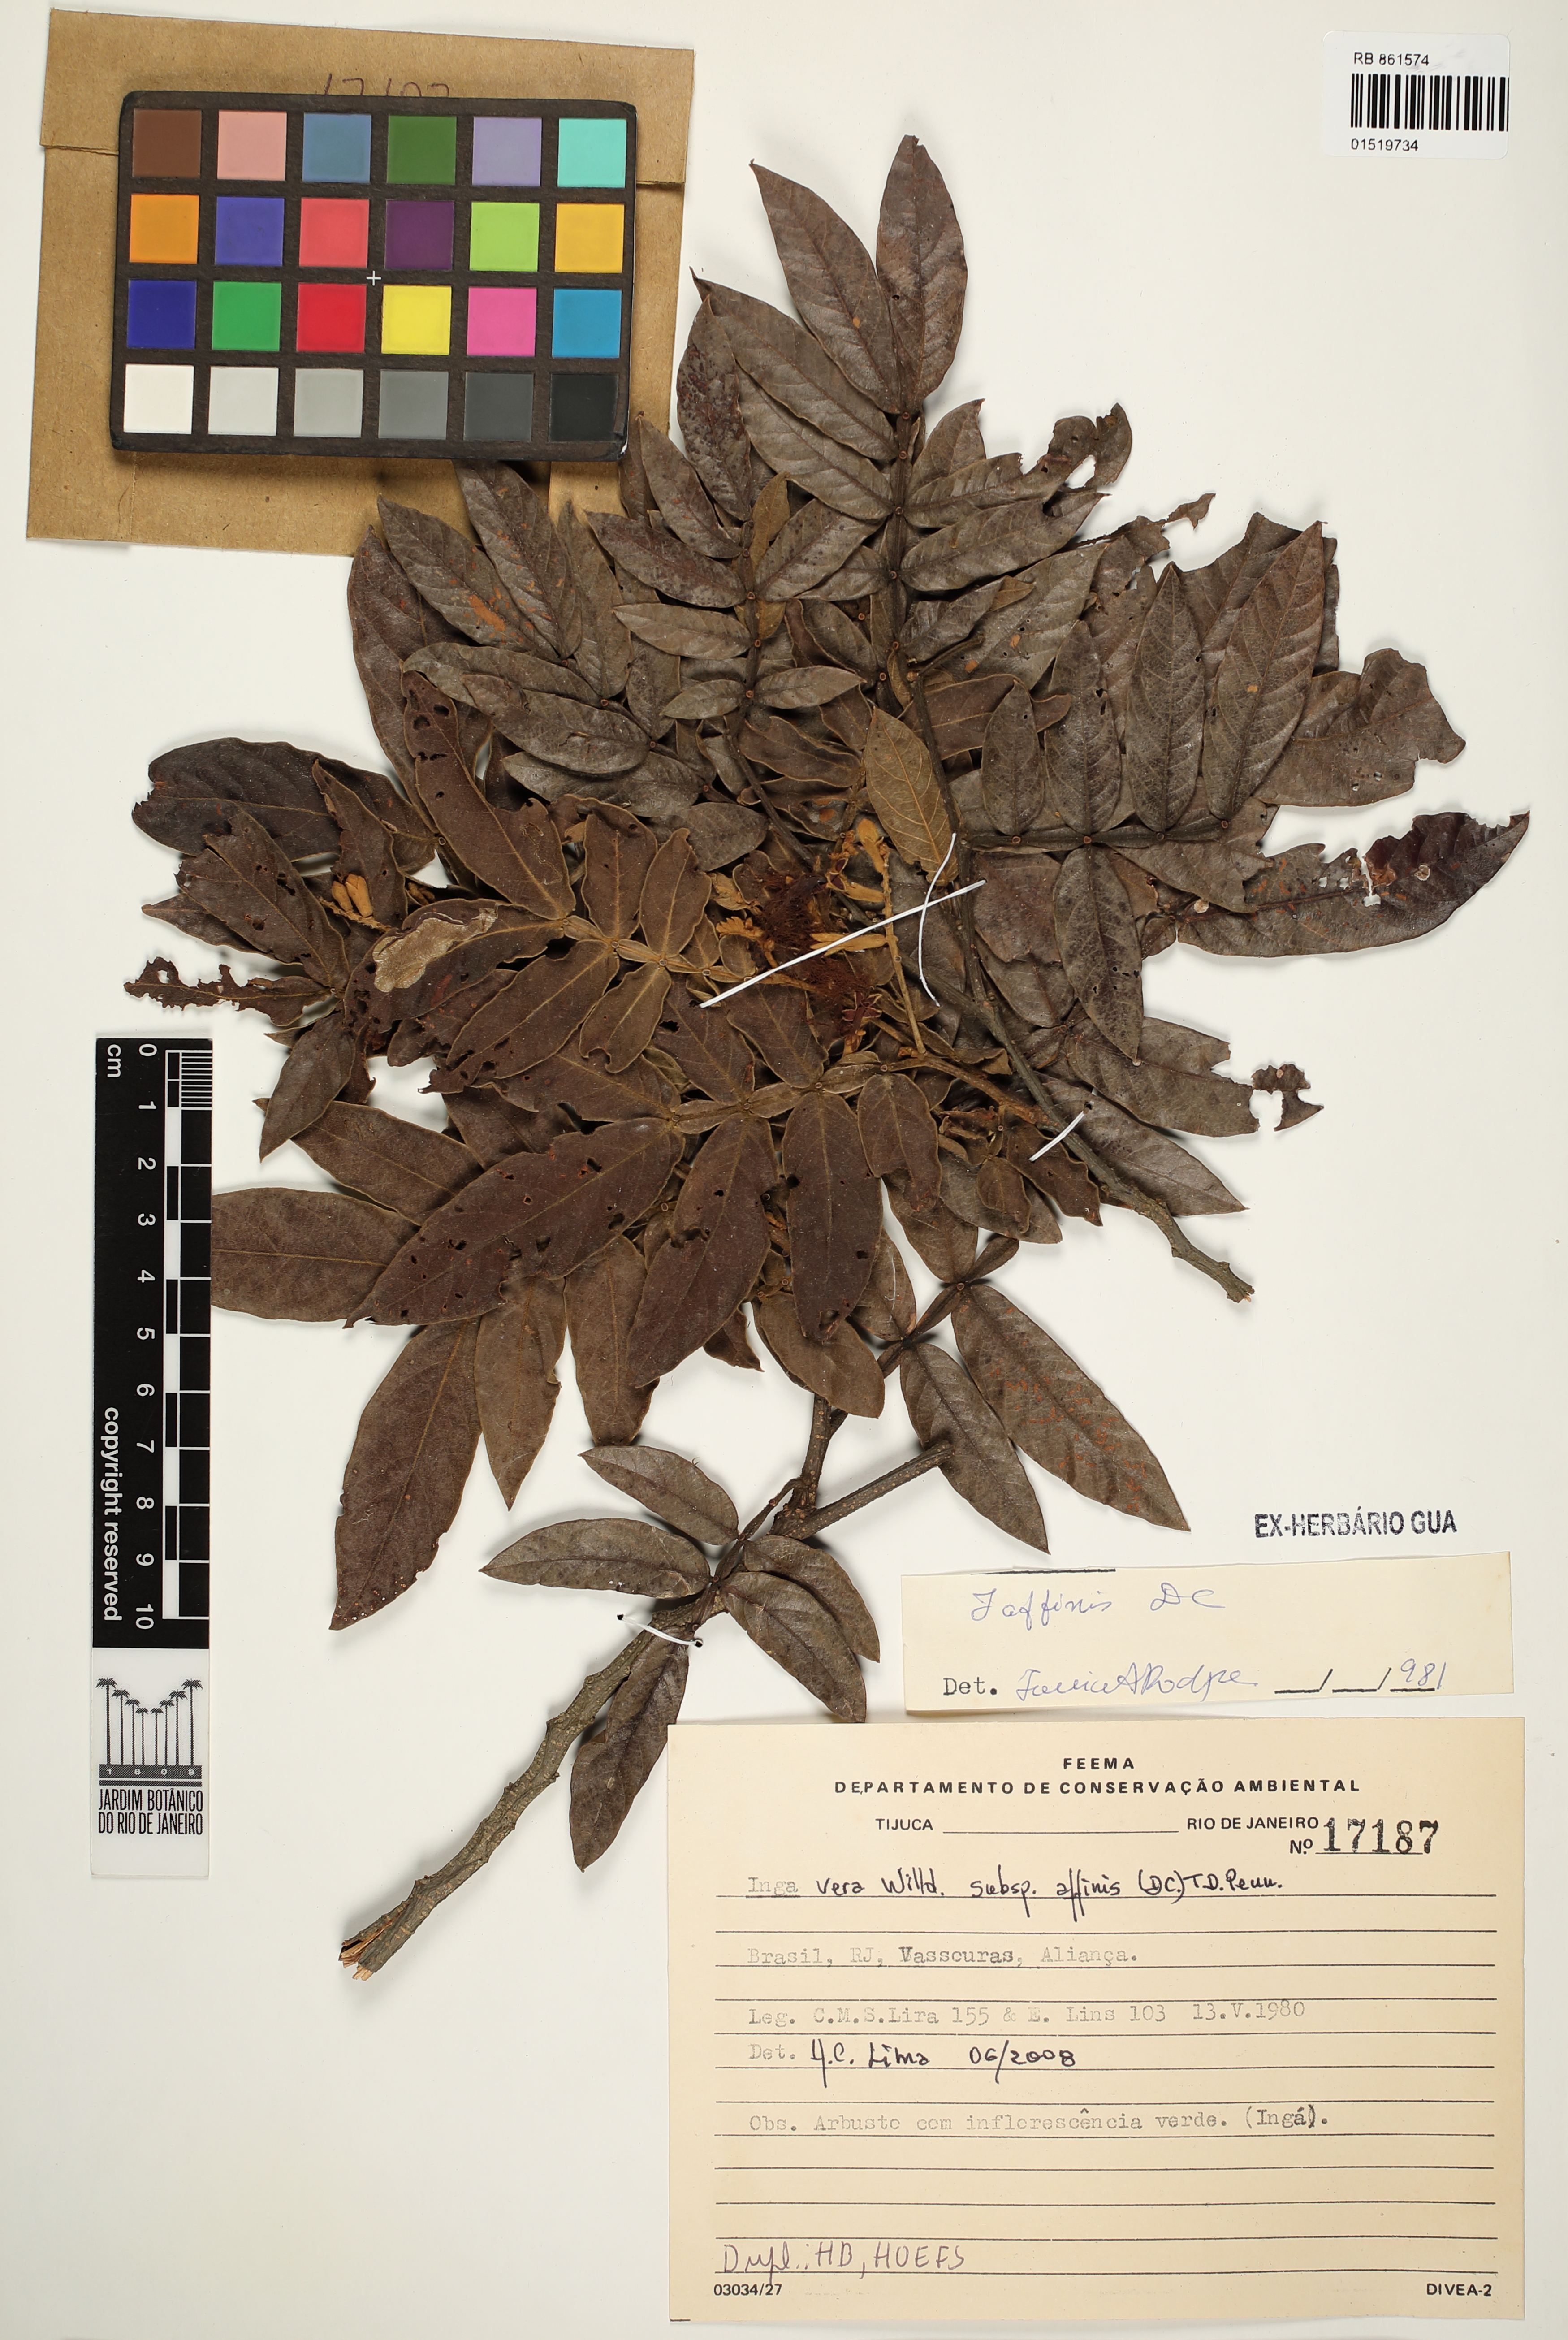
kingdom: Plantae
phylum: Tracheophyta
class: Magnoliopsida
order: Fabales
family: Fabaceae
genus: Inga
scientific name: Inga affinis
